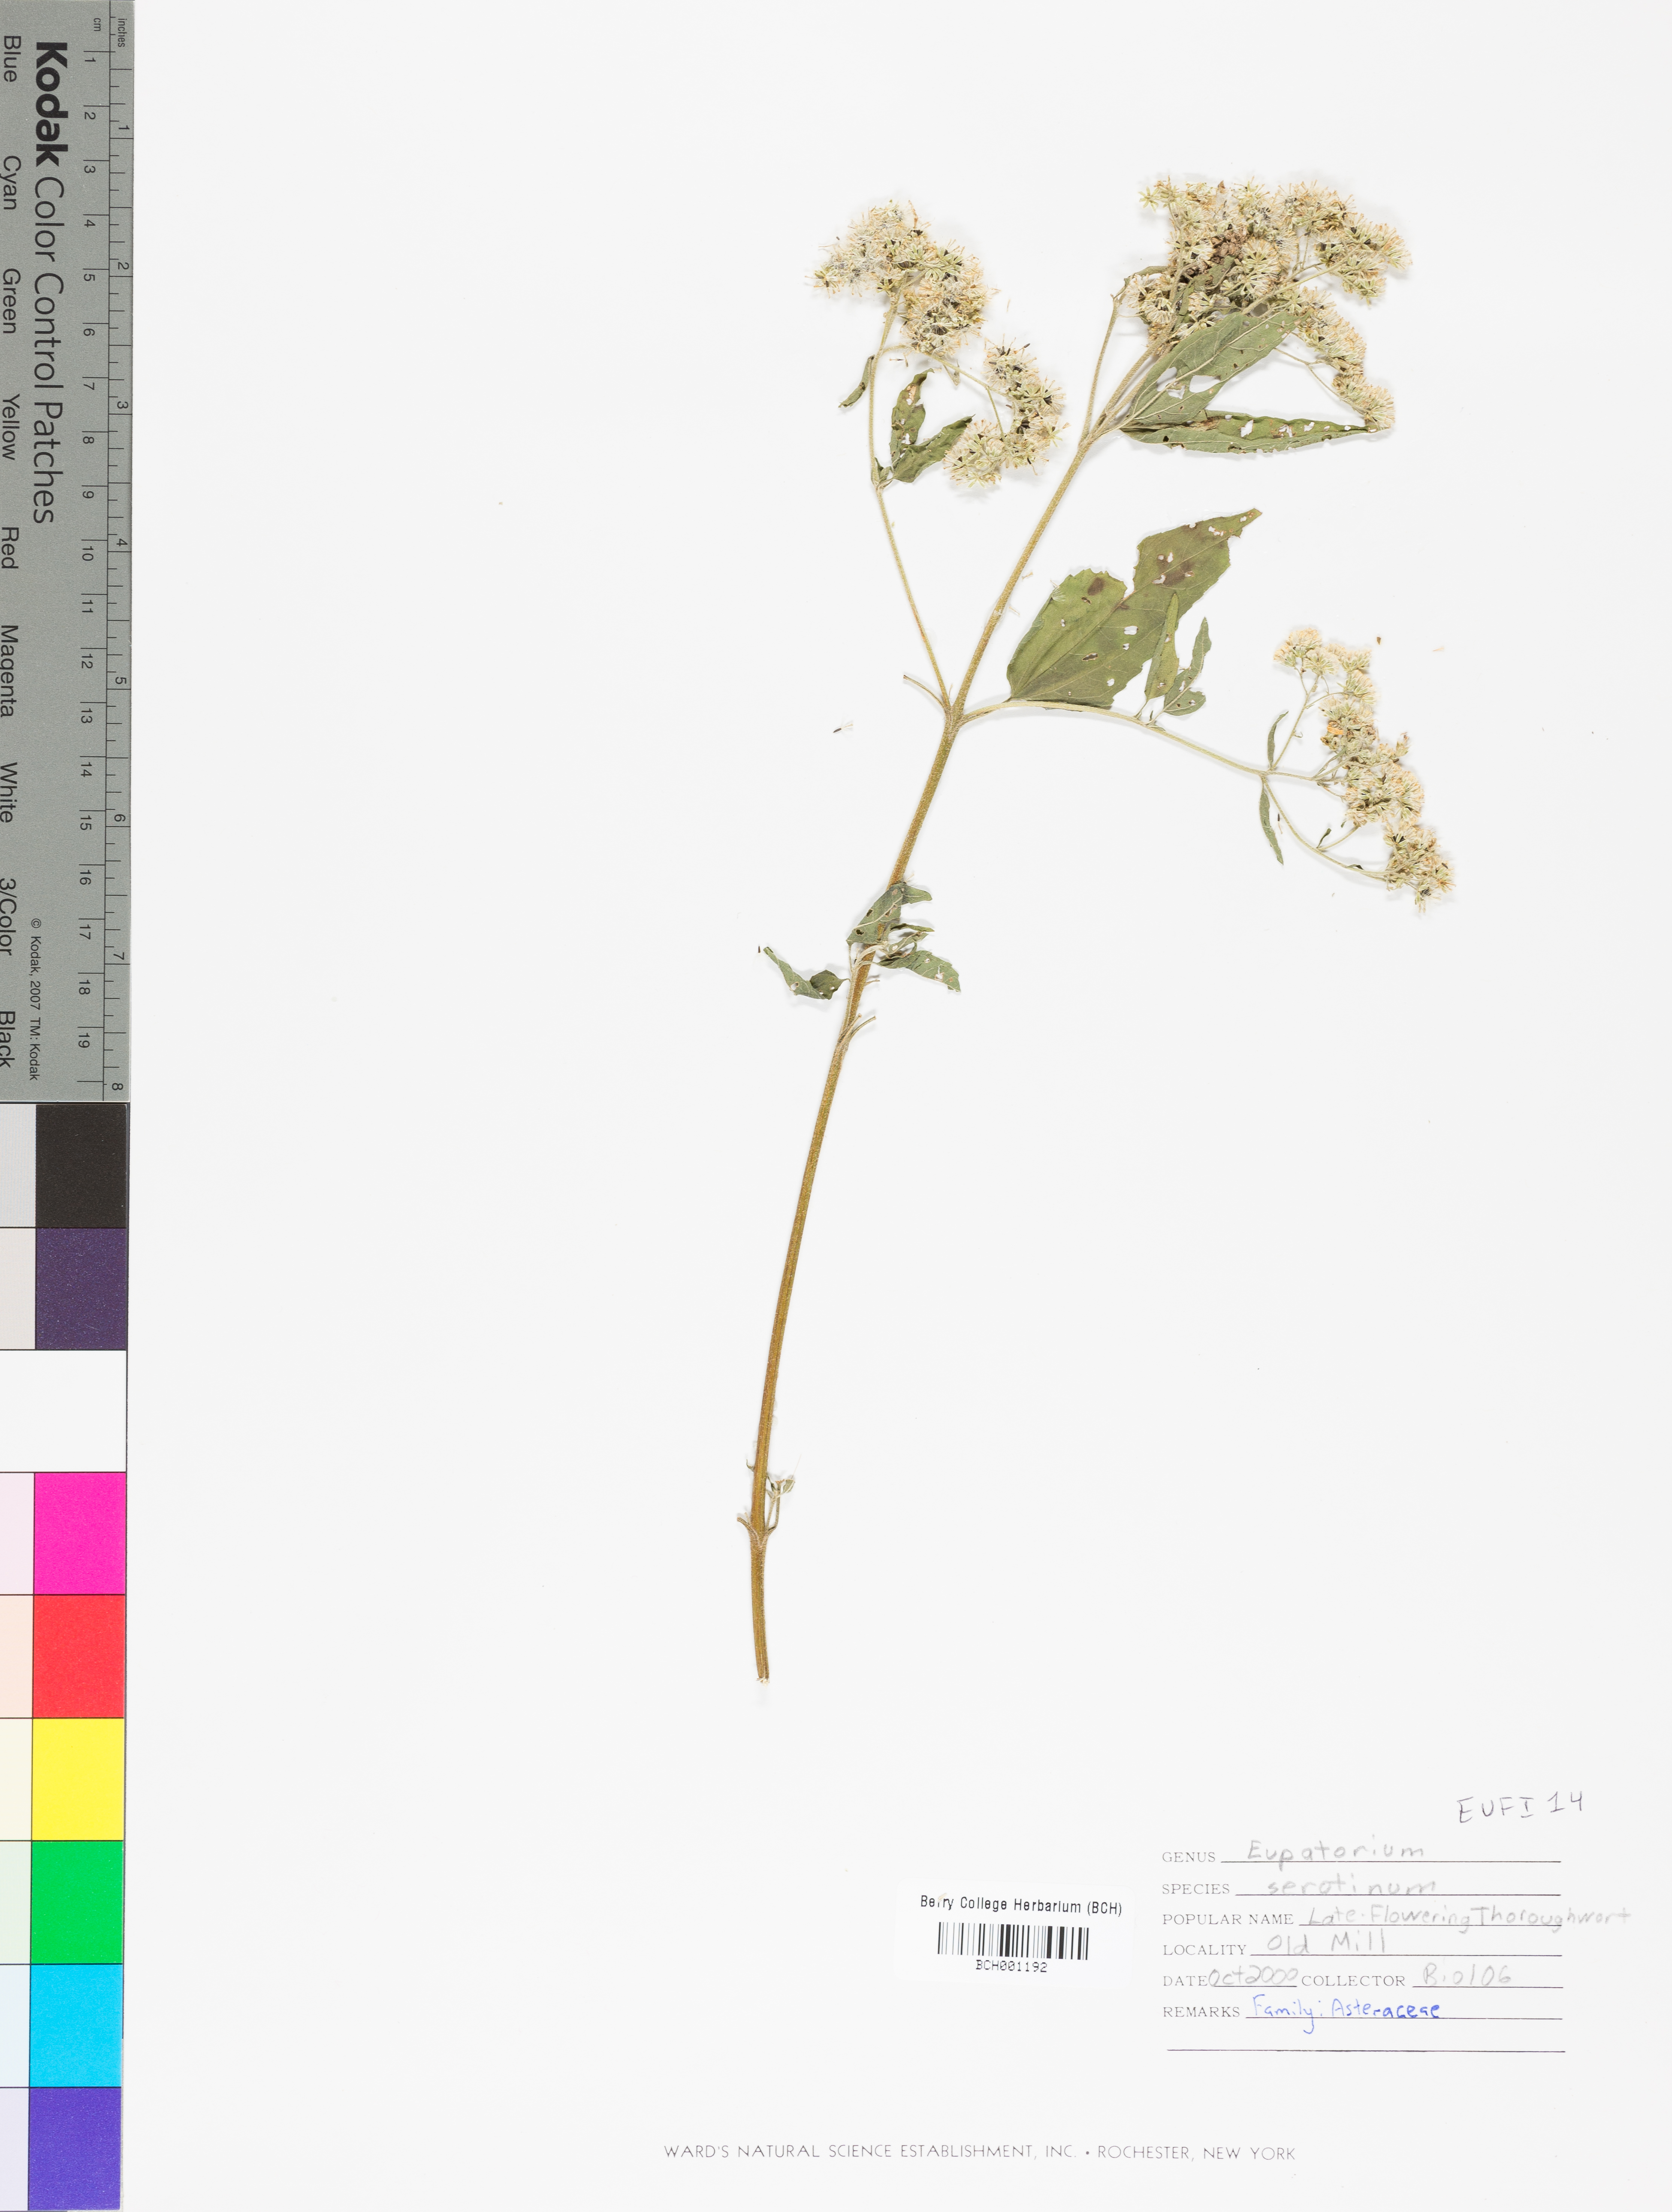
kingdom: Plantae
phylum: Tracheophyta
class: Magnoliopsida
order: Asterales
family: Asteraceae
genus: Eutrochium
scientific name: Eutrochium
